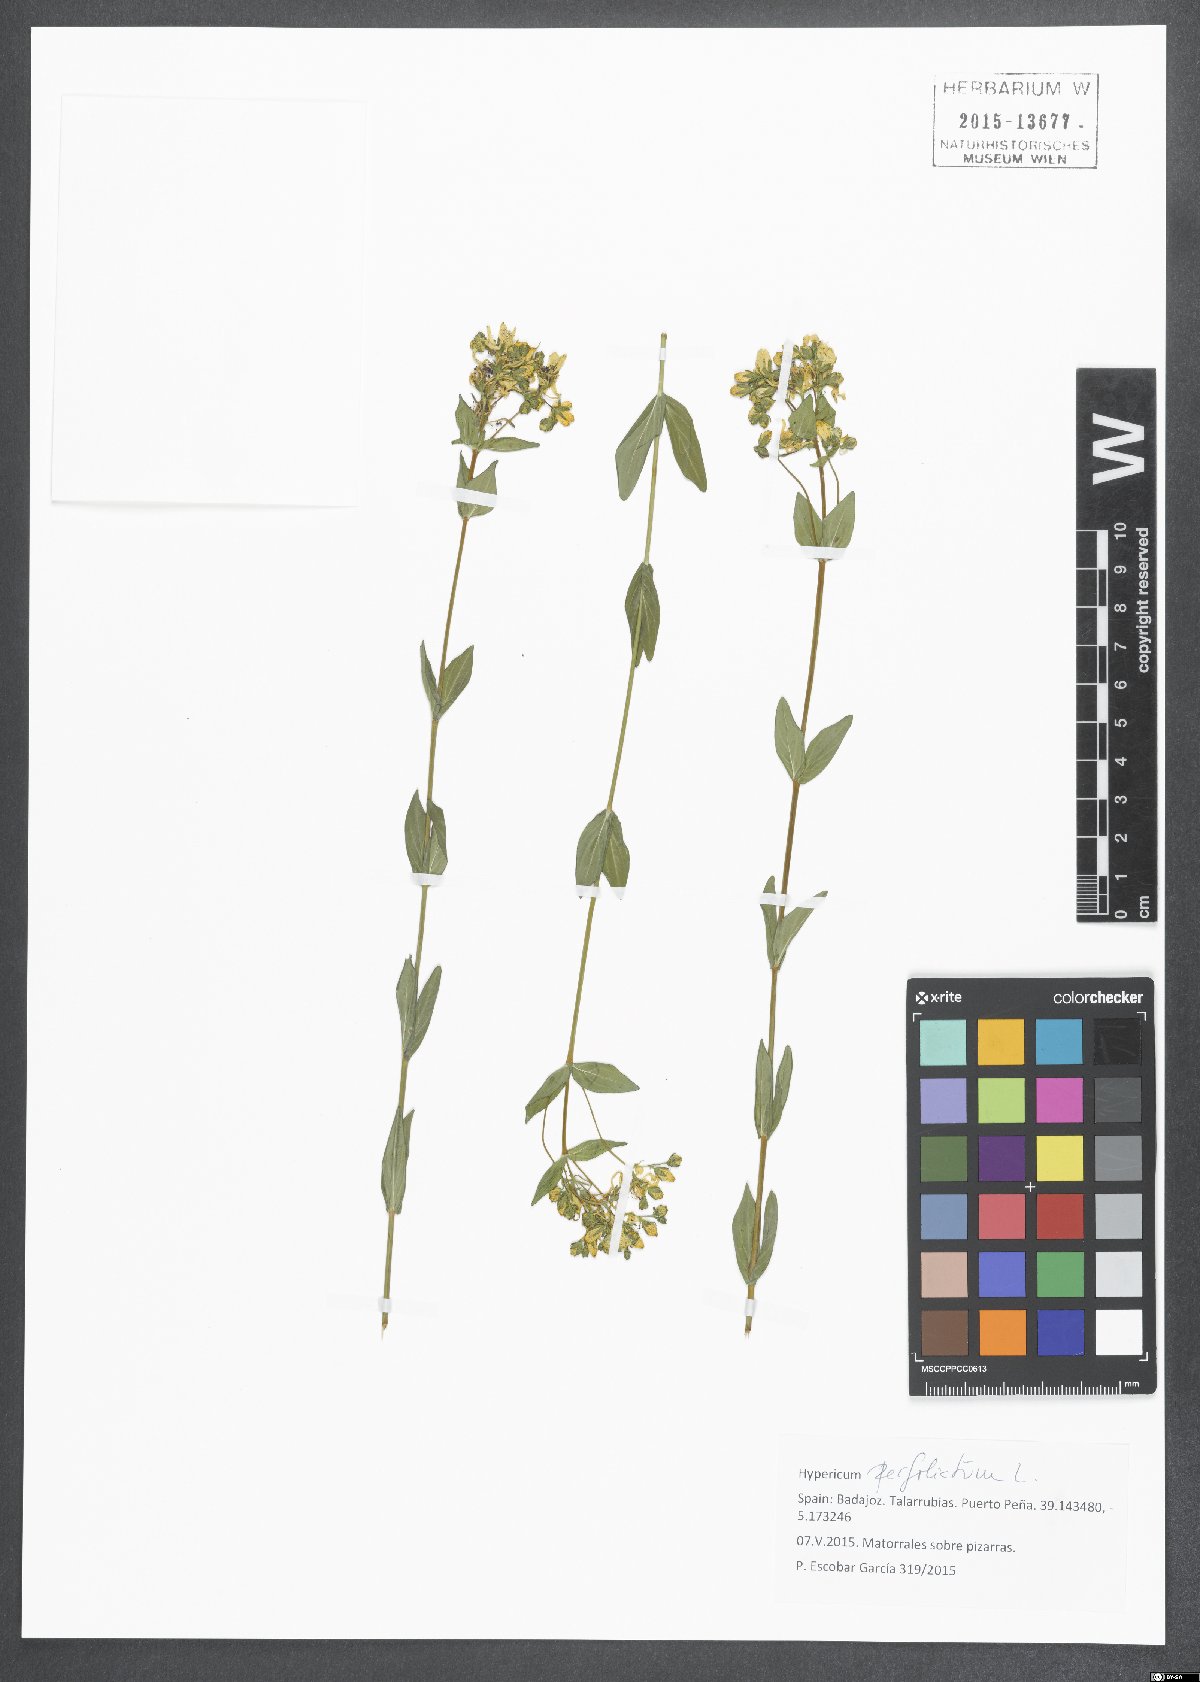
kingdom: Plantae
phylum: Tracheophyta
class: Magnoliopsida
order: Malpighiales
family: Hypericaceae
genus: Hypericum
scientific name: Hypericum perfoliatum
